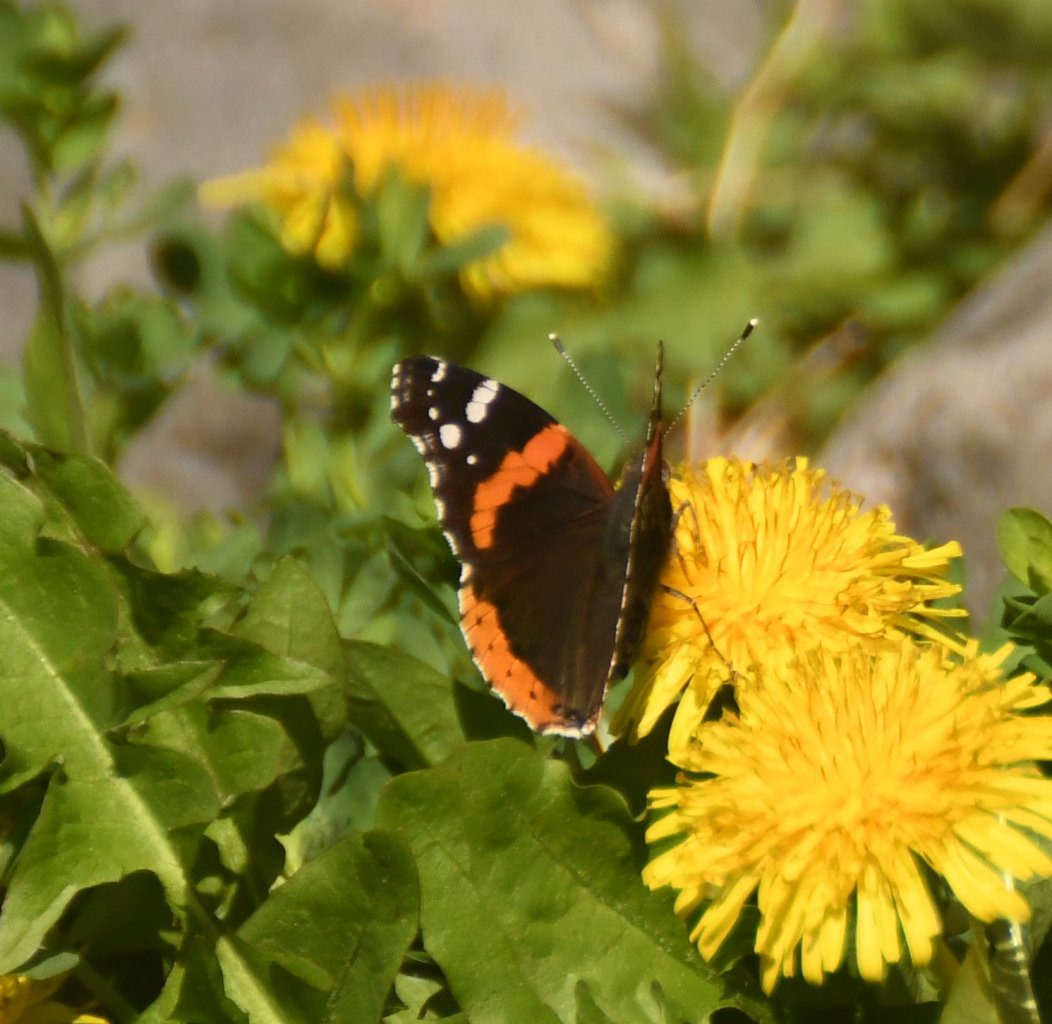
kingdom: Animalia
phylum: Arthropoda
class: Insecta
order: Lepidoptera
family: Nymphalidae
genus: Vanessa
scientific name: Vanessa atalanta
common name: Red Admiral
